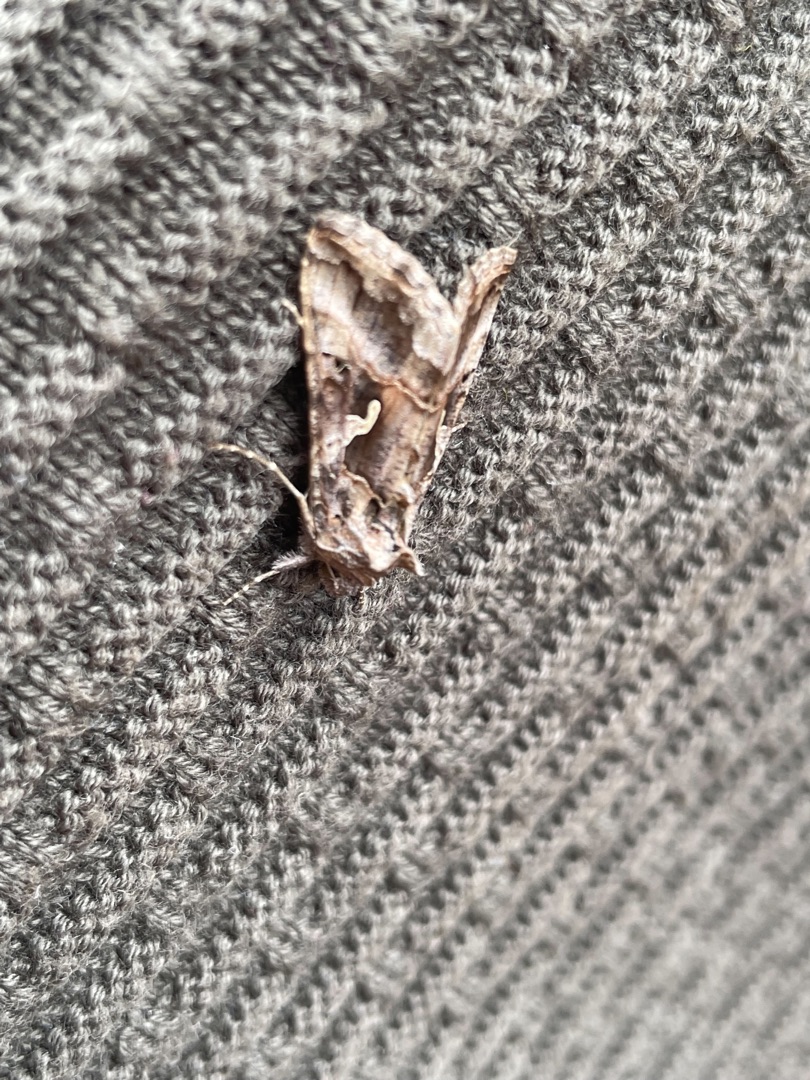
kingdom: Animalia
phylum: Arthropoda
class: Insecta
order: Lepidoptera
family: Noctuidae
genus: Autographa
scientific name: Autographa gamma
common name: Gammaugle
